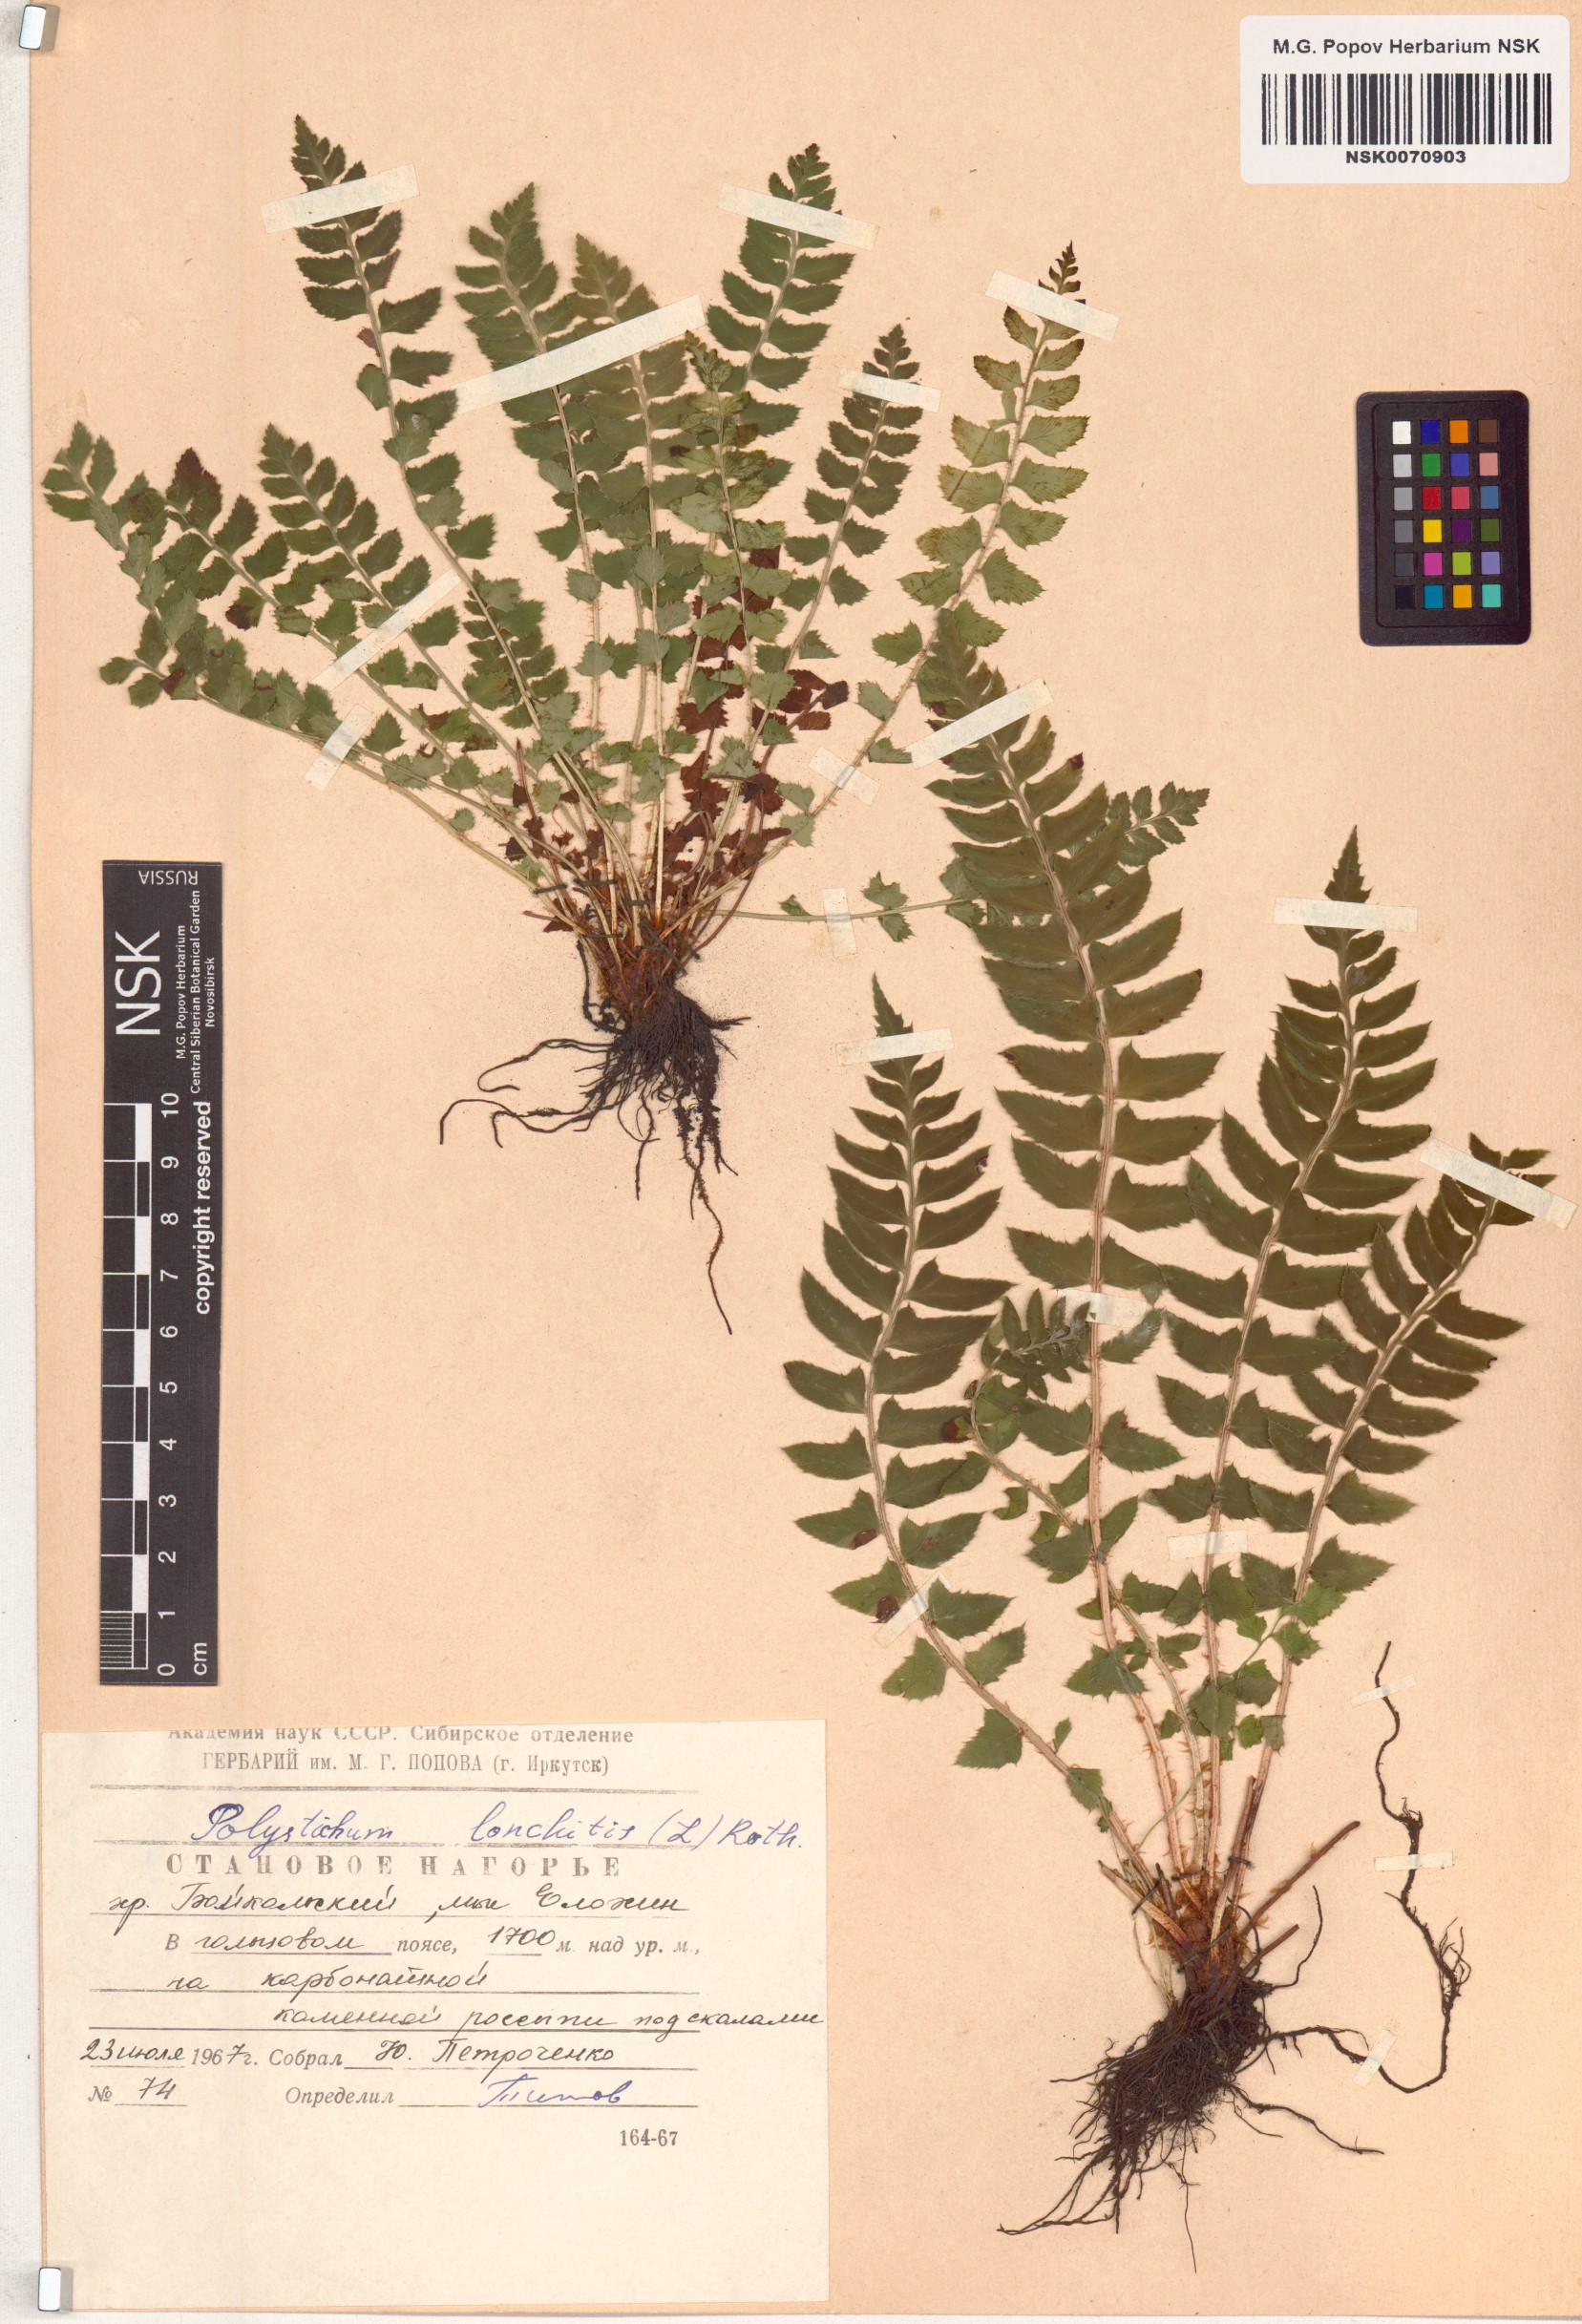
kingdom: Plantae
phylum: Tracheophyta
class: Polypodiopsida
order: Polypodiales
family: Dryopteridaceae
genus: Polystichum
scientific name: Polystichum lonchitis
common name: Holly fern
